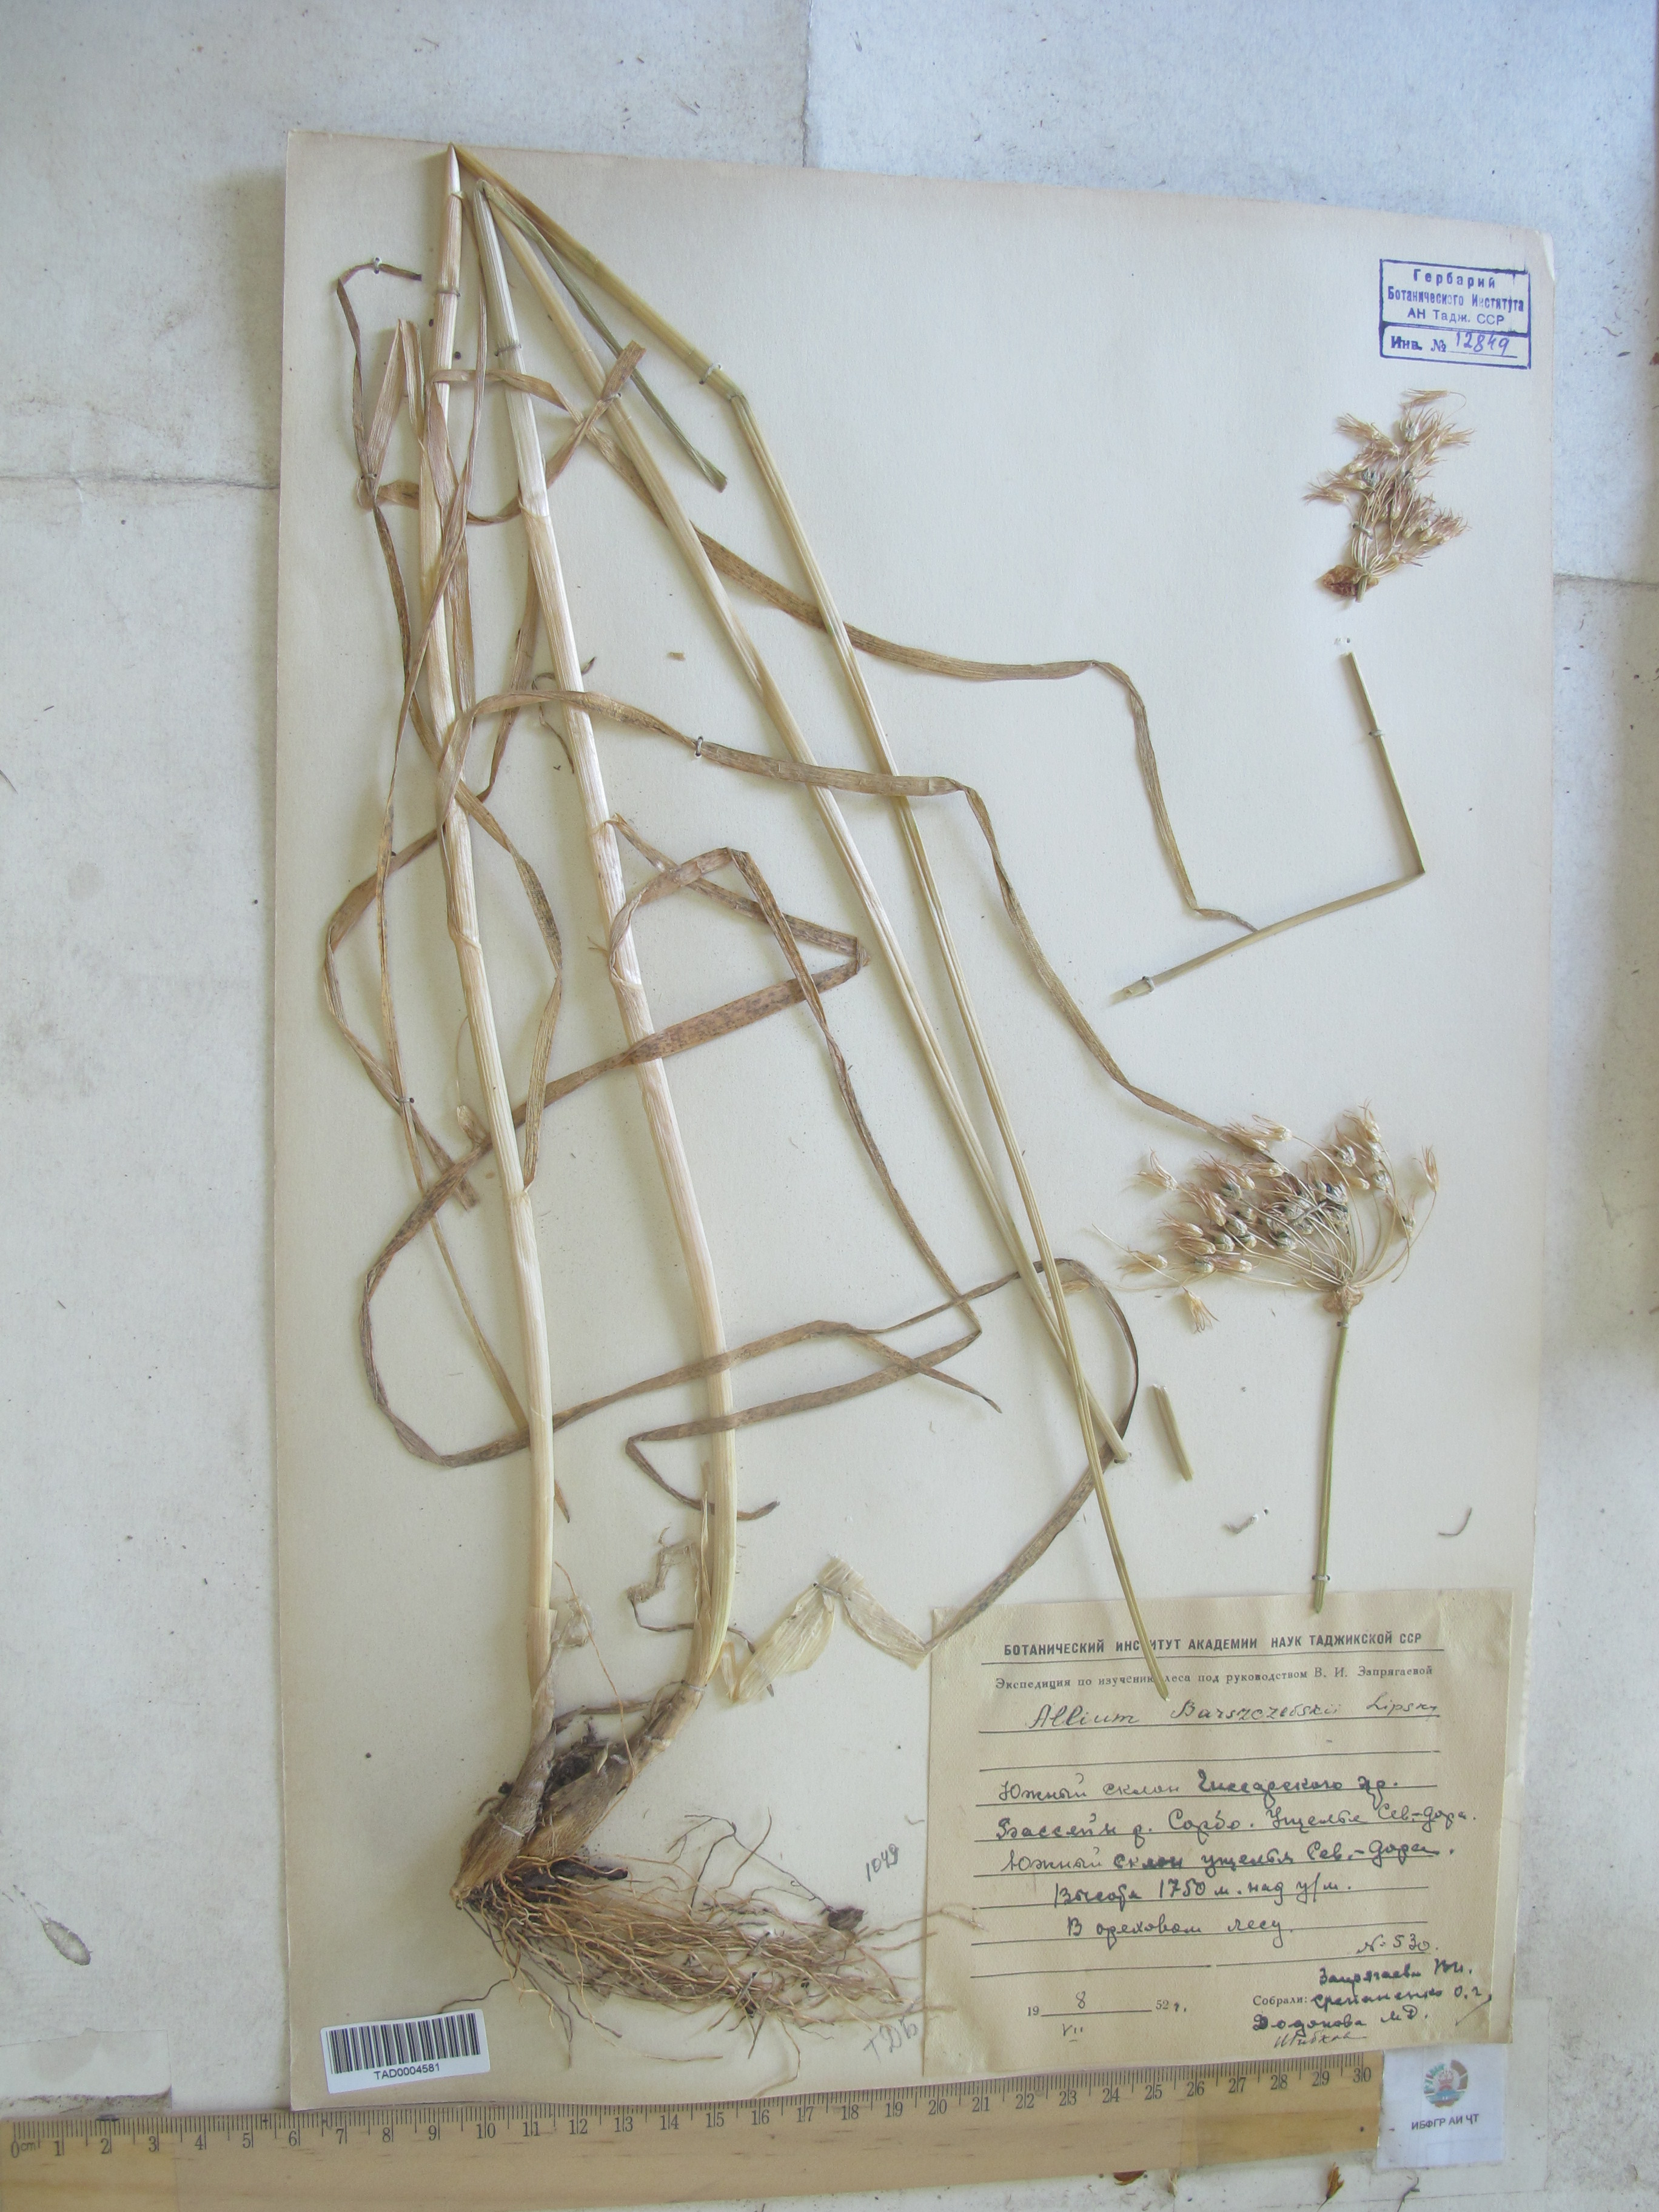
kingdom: Plantae
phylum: Tracheophyta
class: Liliopsida
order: Asparagales
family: Amaryllidaceae
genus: Allium
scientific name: Allium barsczewskii
